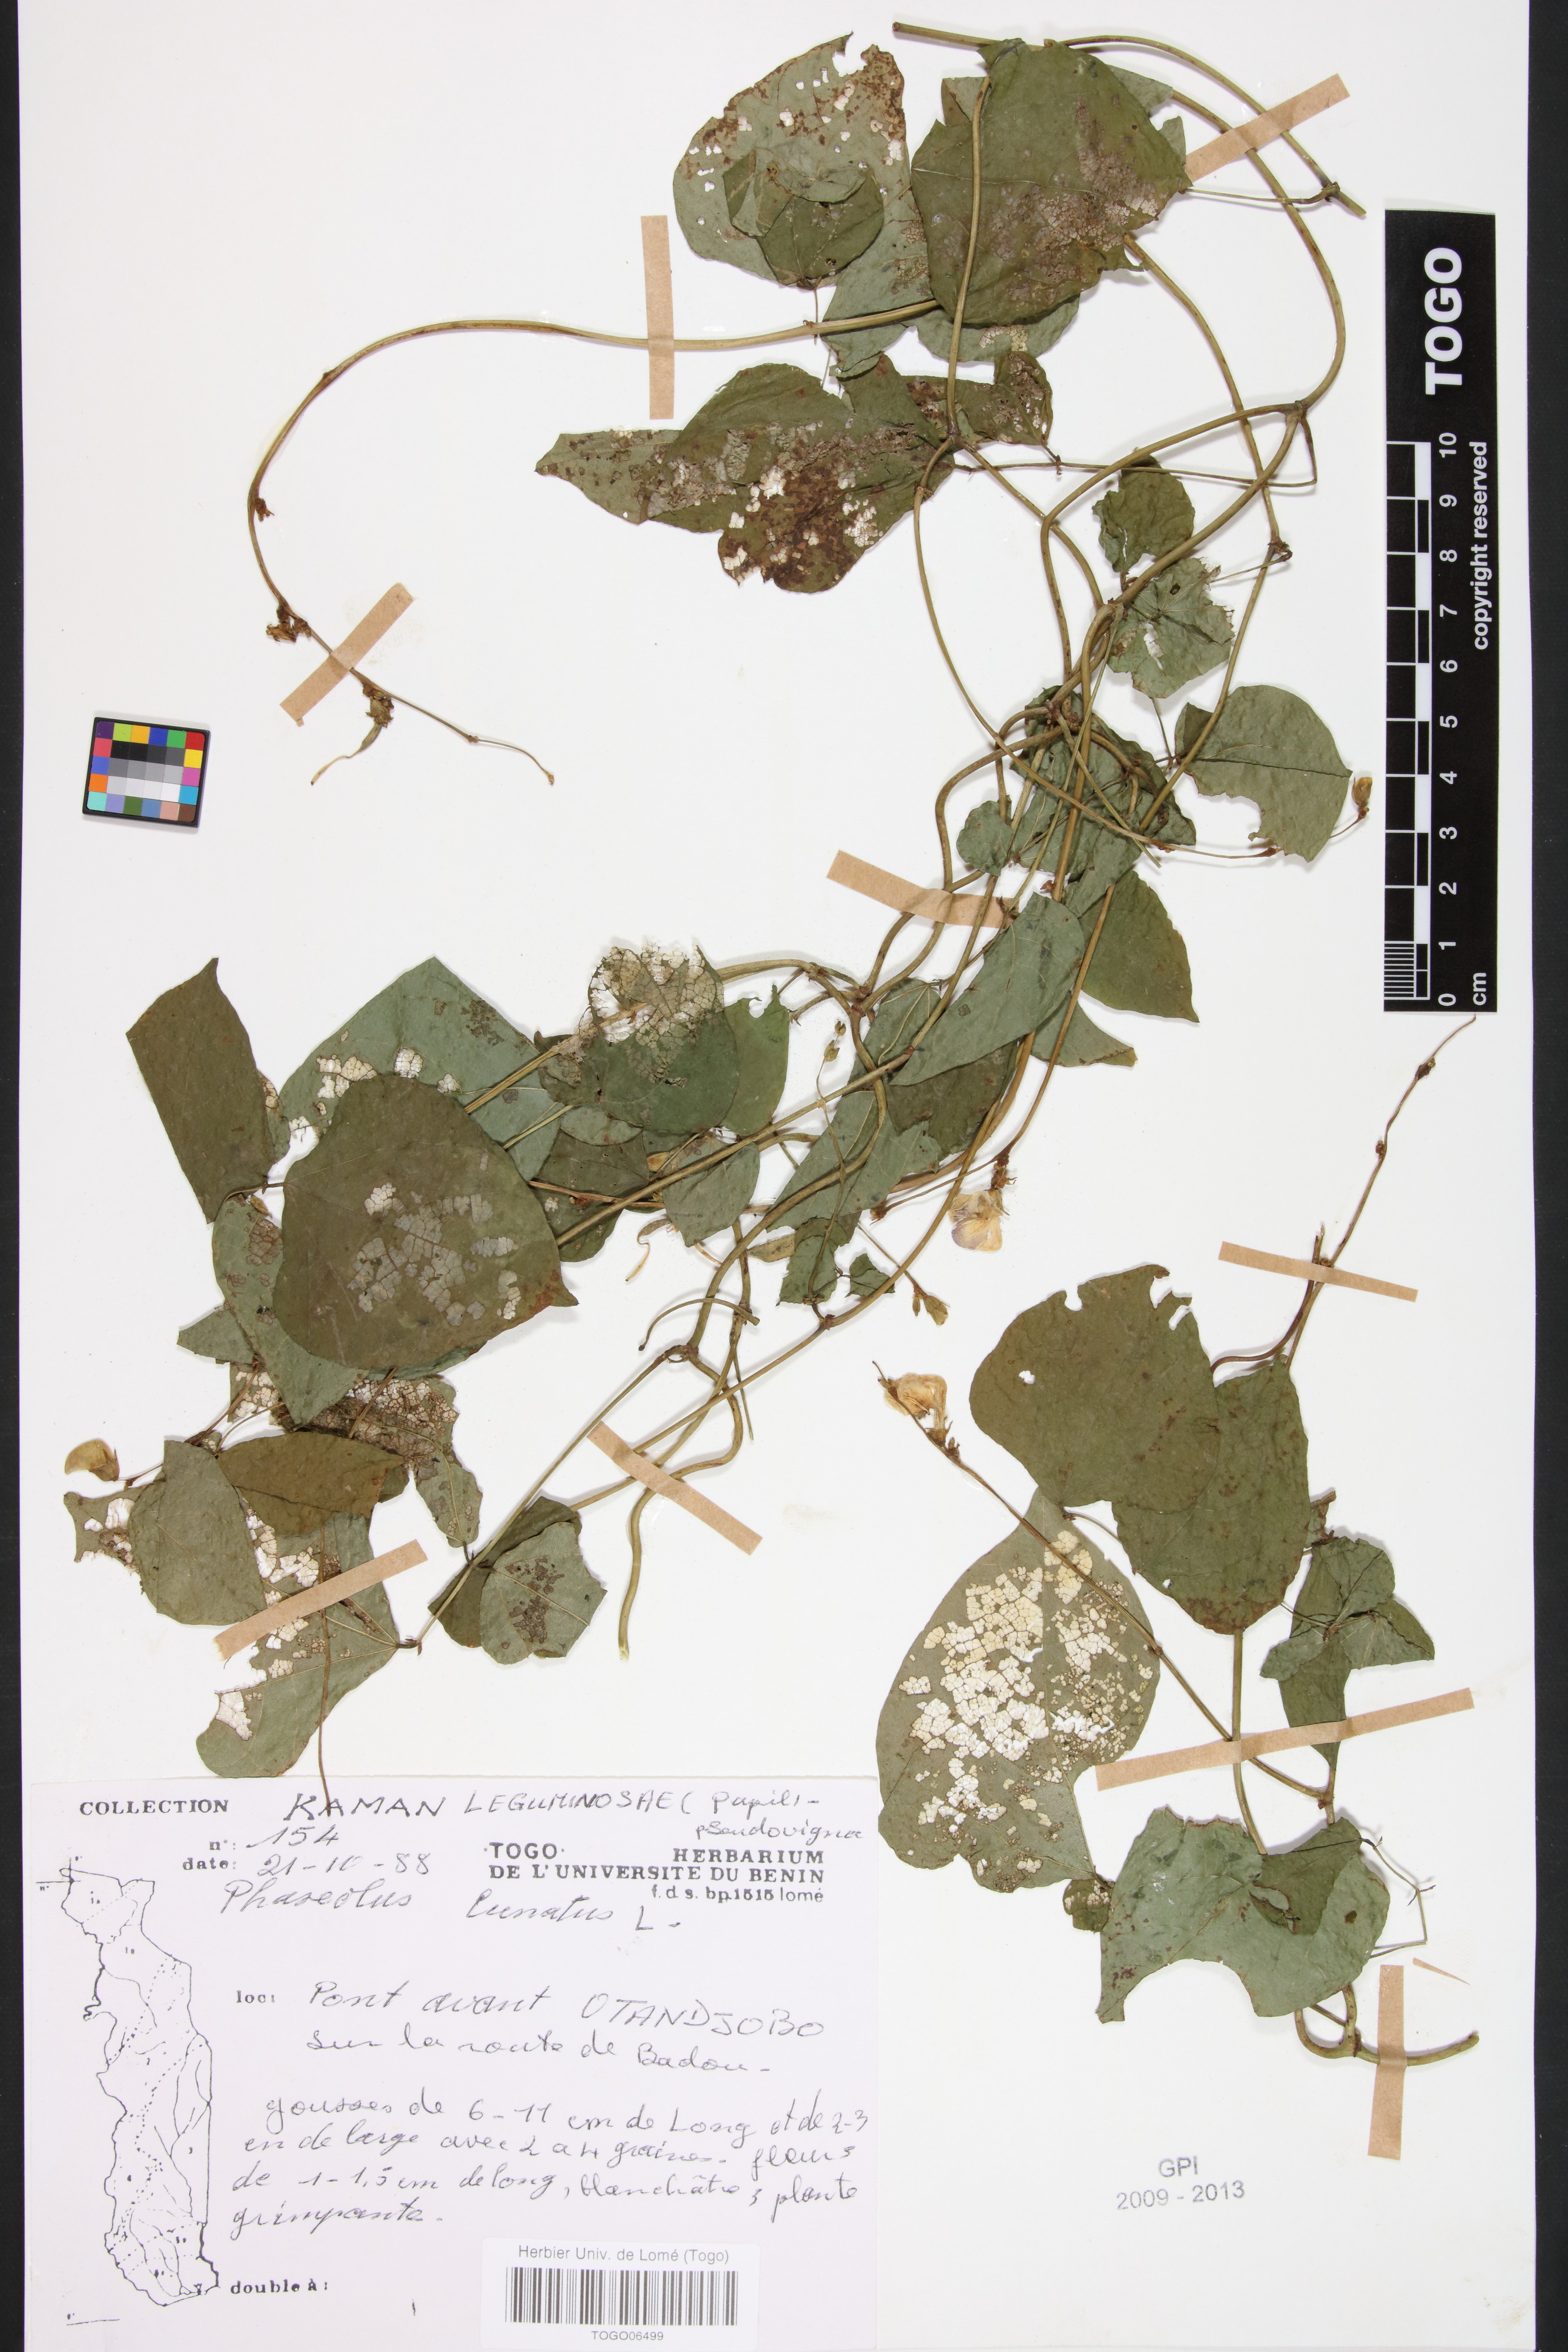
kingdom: Plantae
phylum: Tracheophyta
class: Magnoliopsida
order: Fabales
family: Fabaceae
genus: Phaseolus
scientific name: Phaseolus lunatus
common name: Sieva bean
